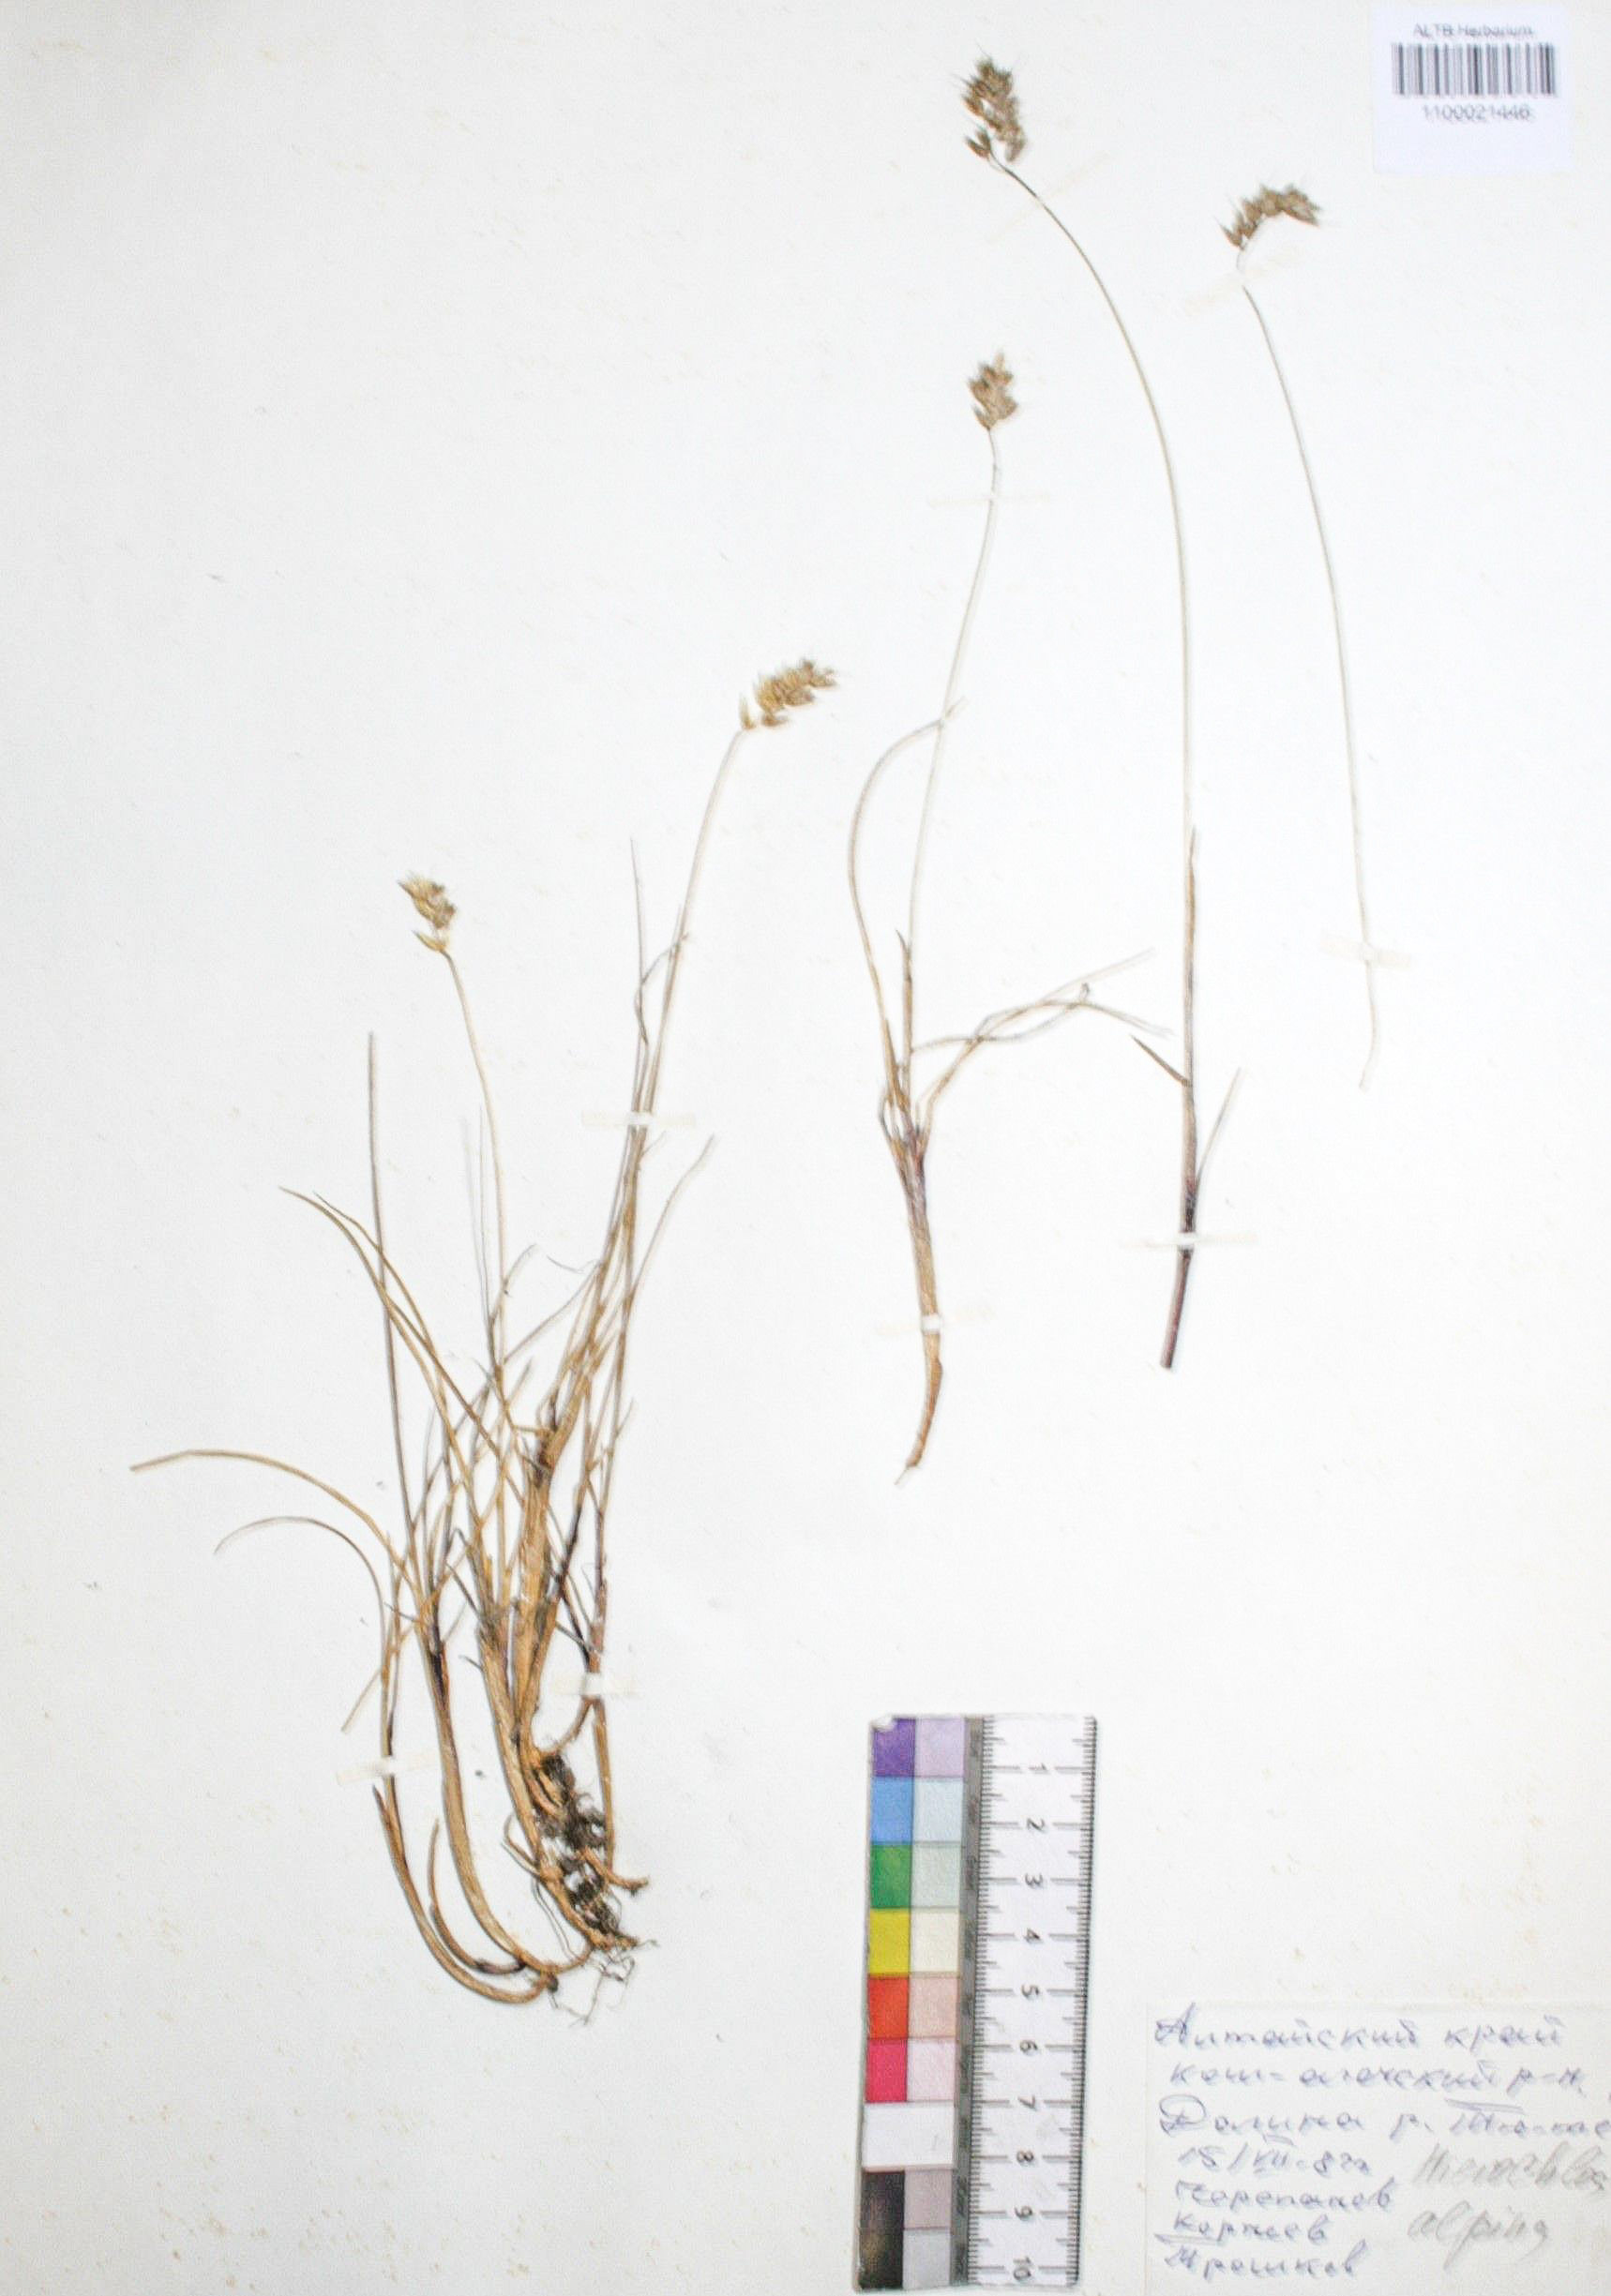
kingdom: Plantae
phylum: Tracheophyta
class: Liliopsida
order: Poales
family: Poaceae
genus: Anthoxanthum
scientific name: Anthoxanthum monticola
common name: Alpine sweetgrass
